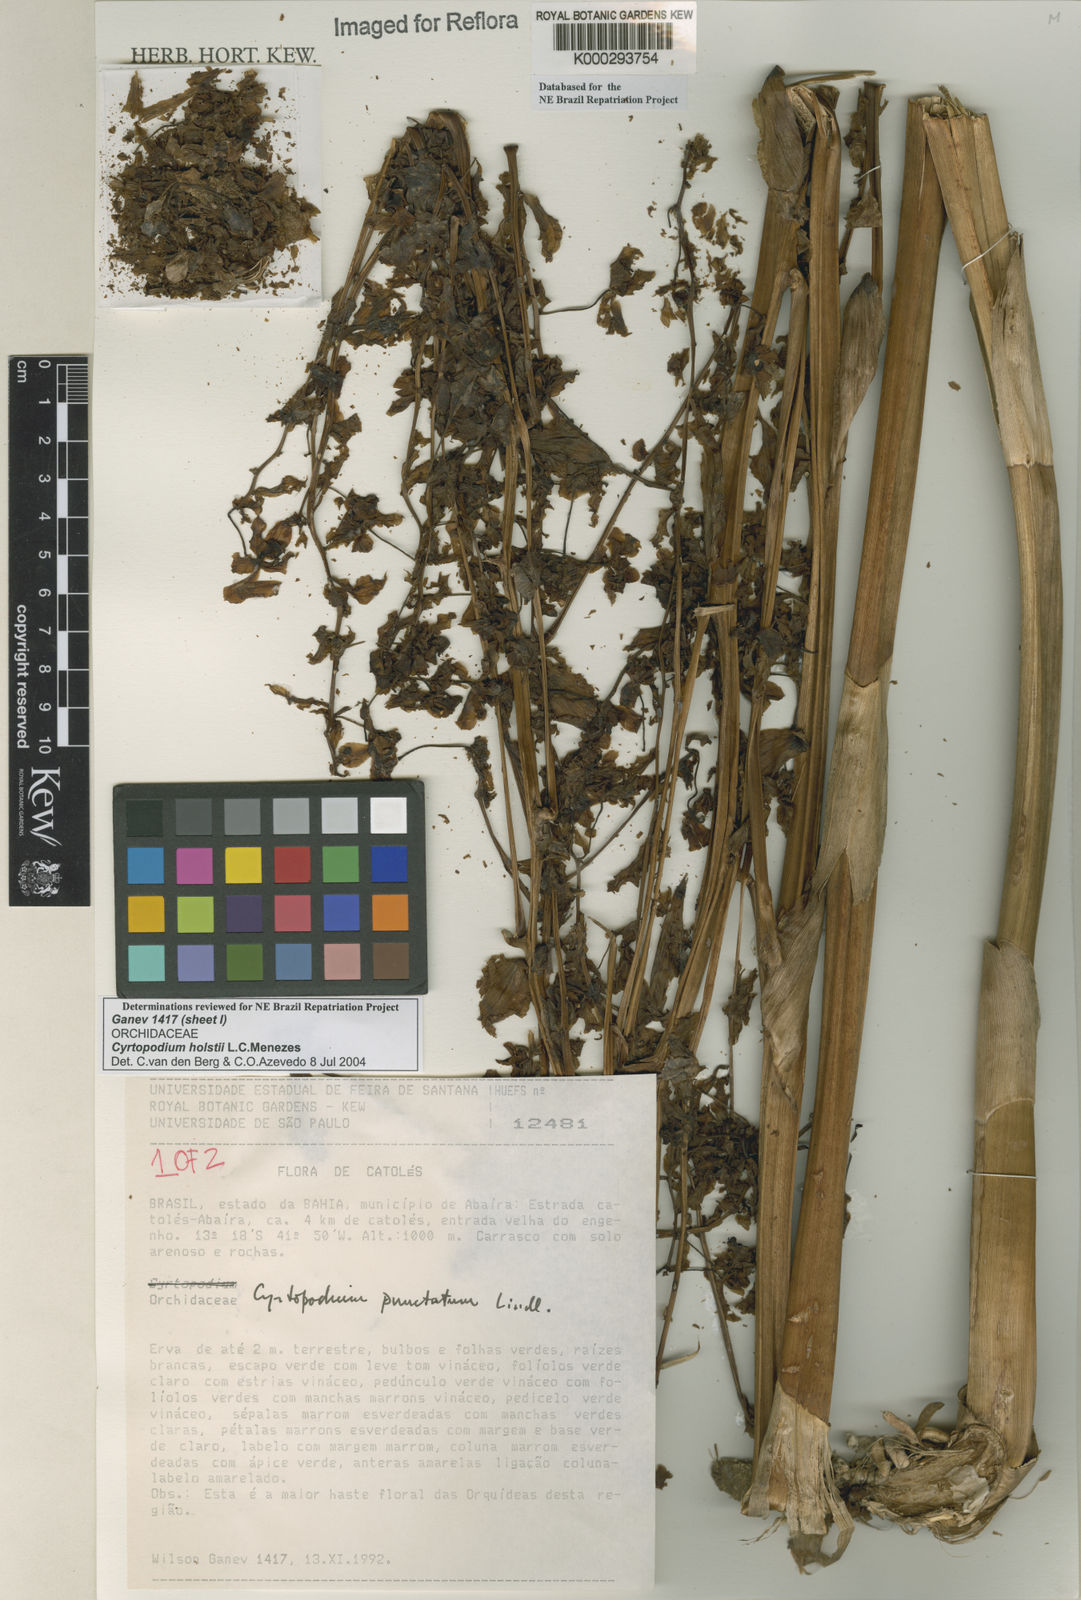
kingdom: Plantae
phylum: Tracheophyta
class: Liliopsida
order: Asparagales
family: Orchidaceae
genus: Cyrtopodium
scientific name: Cyrtopodium holstii
